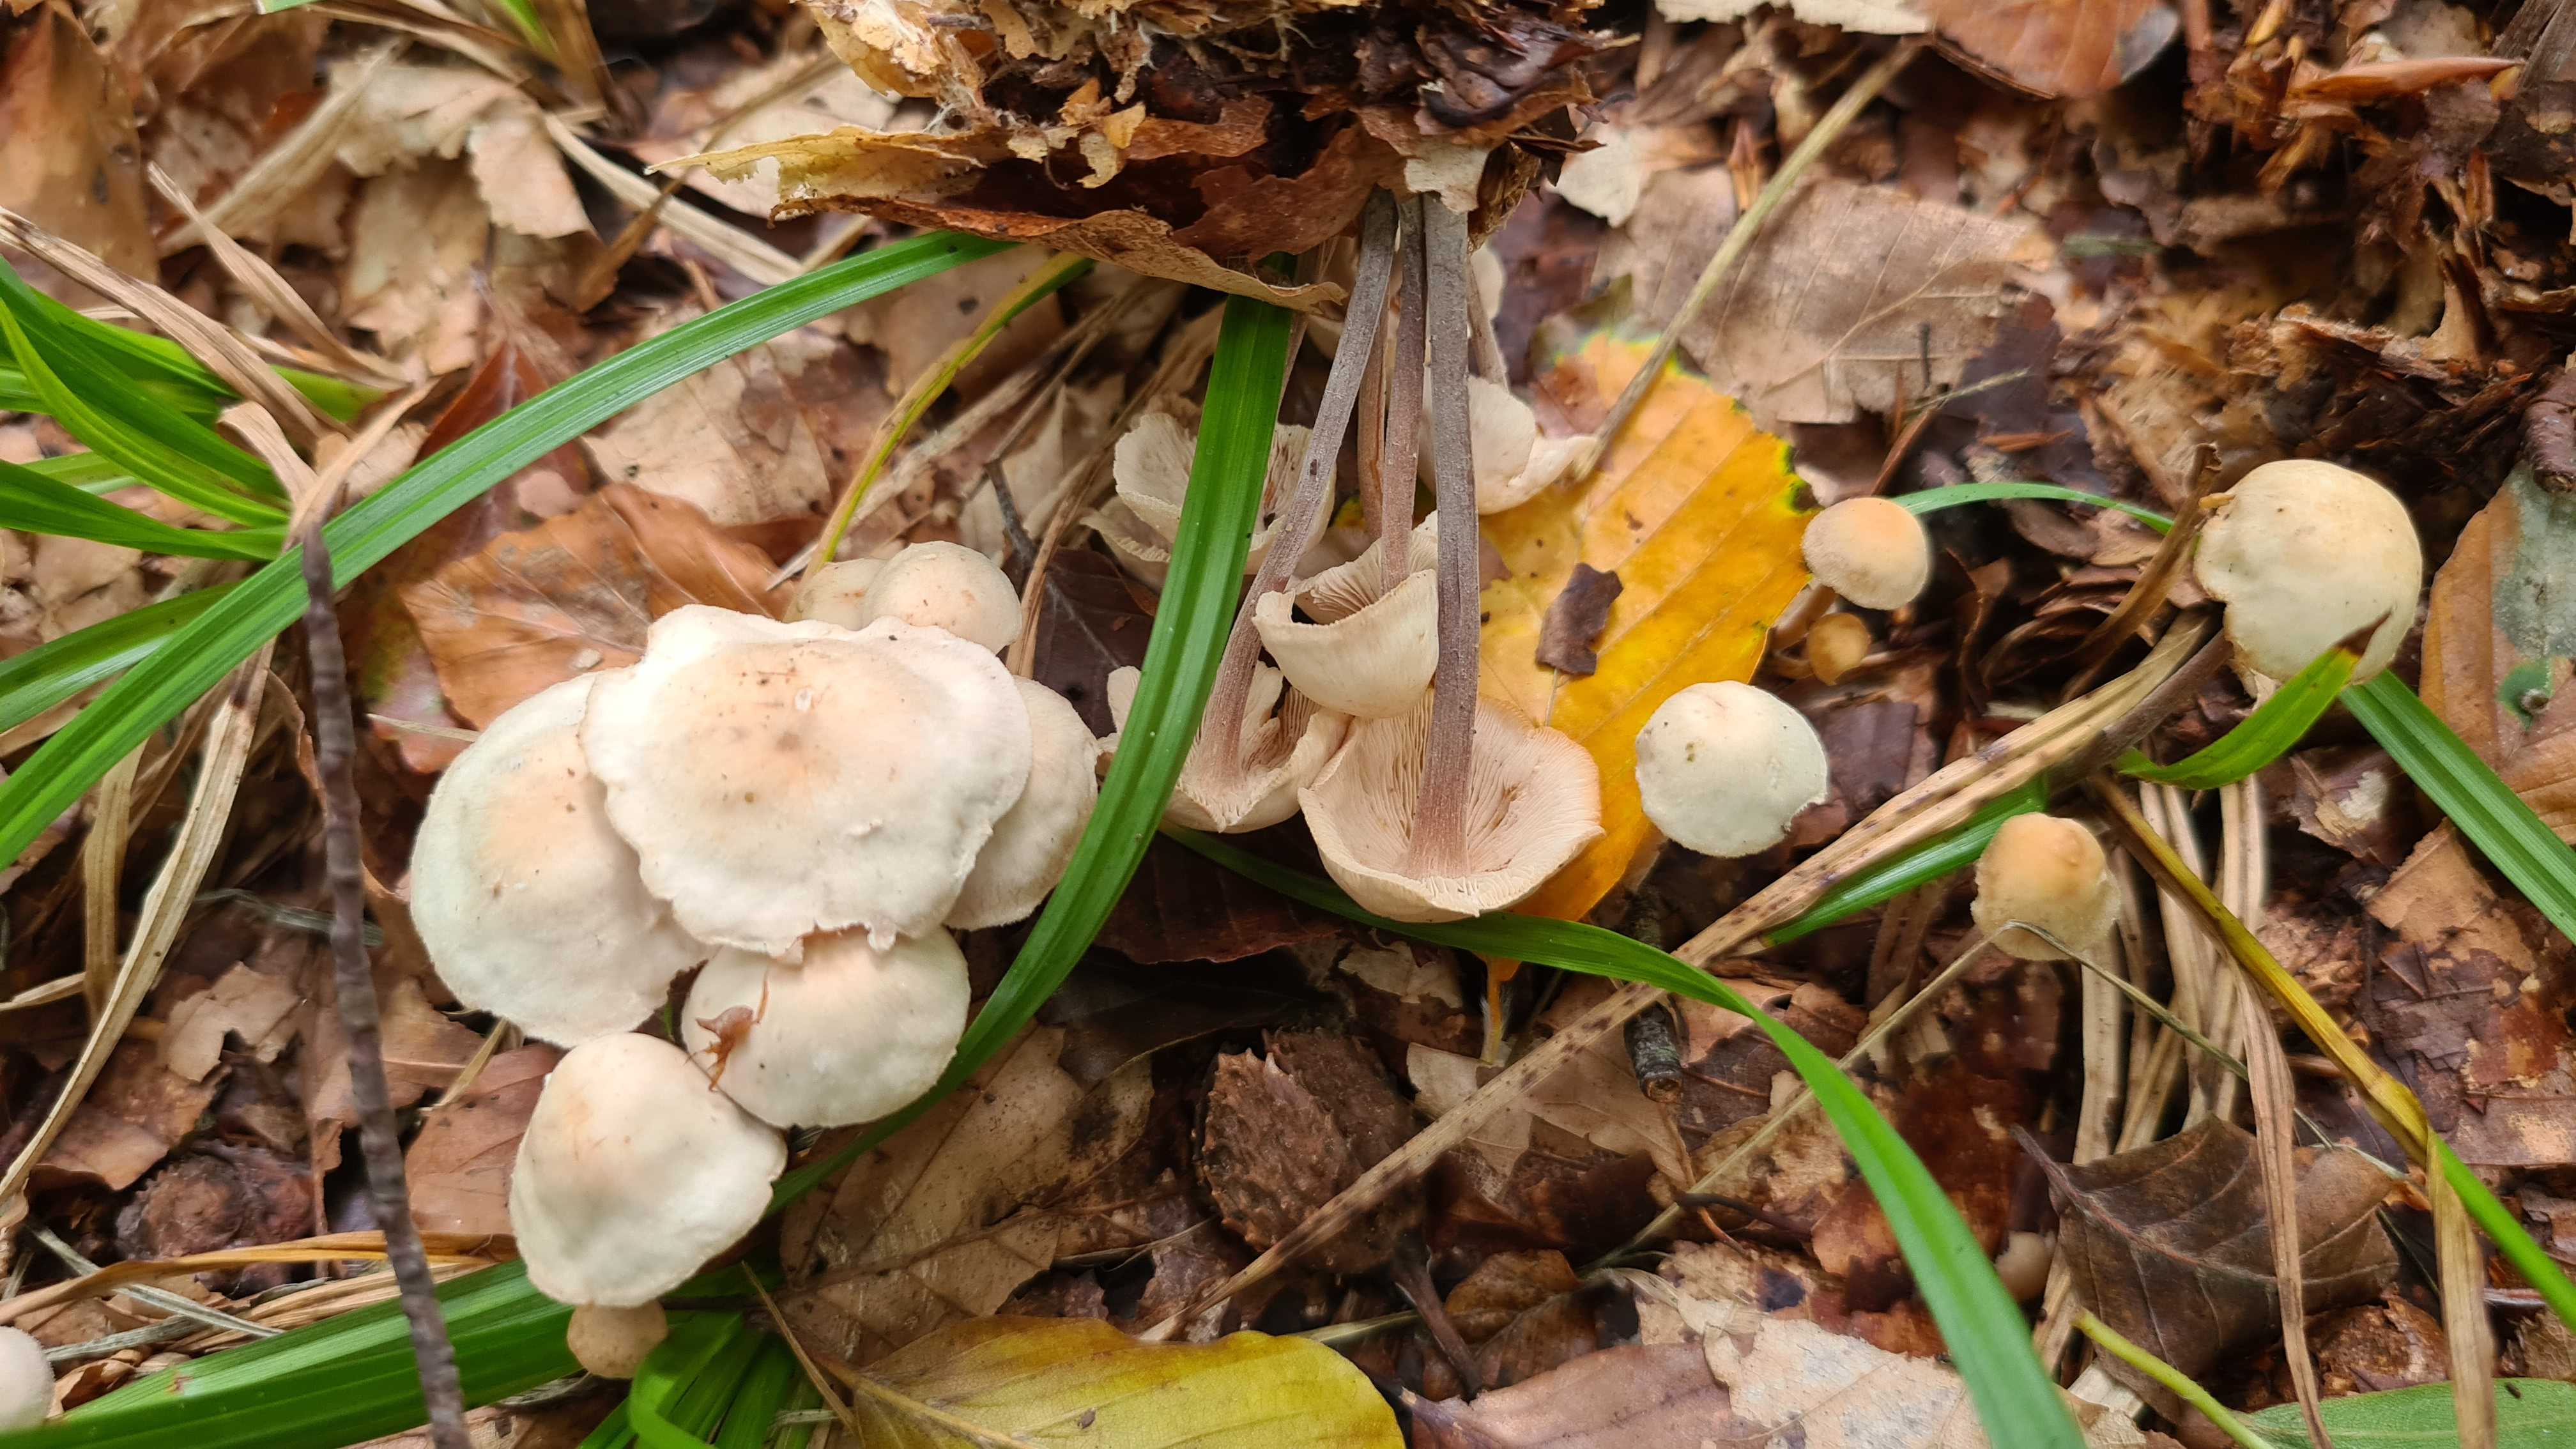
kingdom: Fungi
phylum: Basidiomycota
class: Agaricomycetes
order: Agaricales
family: Omphalotaceae
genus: Collybiopsis
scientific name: Collybiopsis confluens
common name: knippe-fladhat
